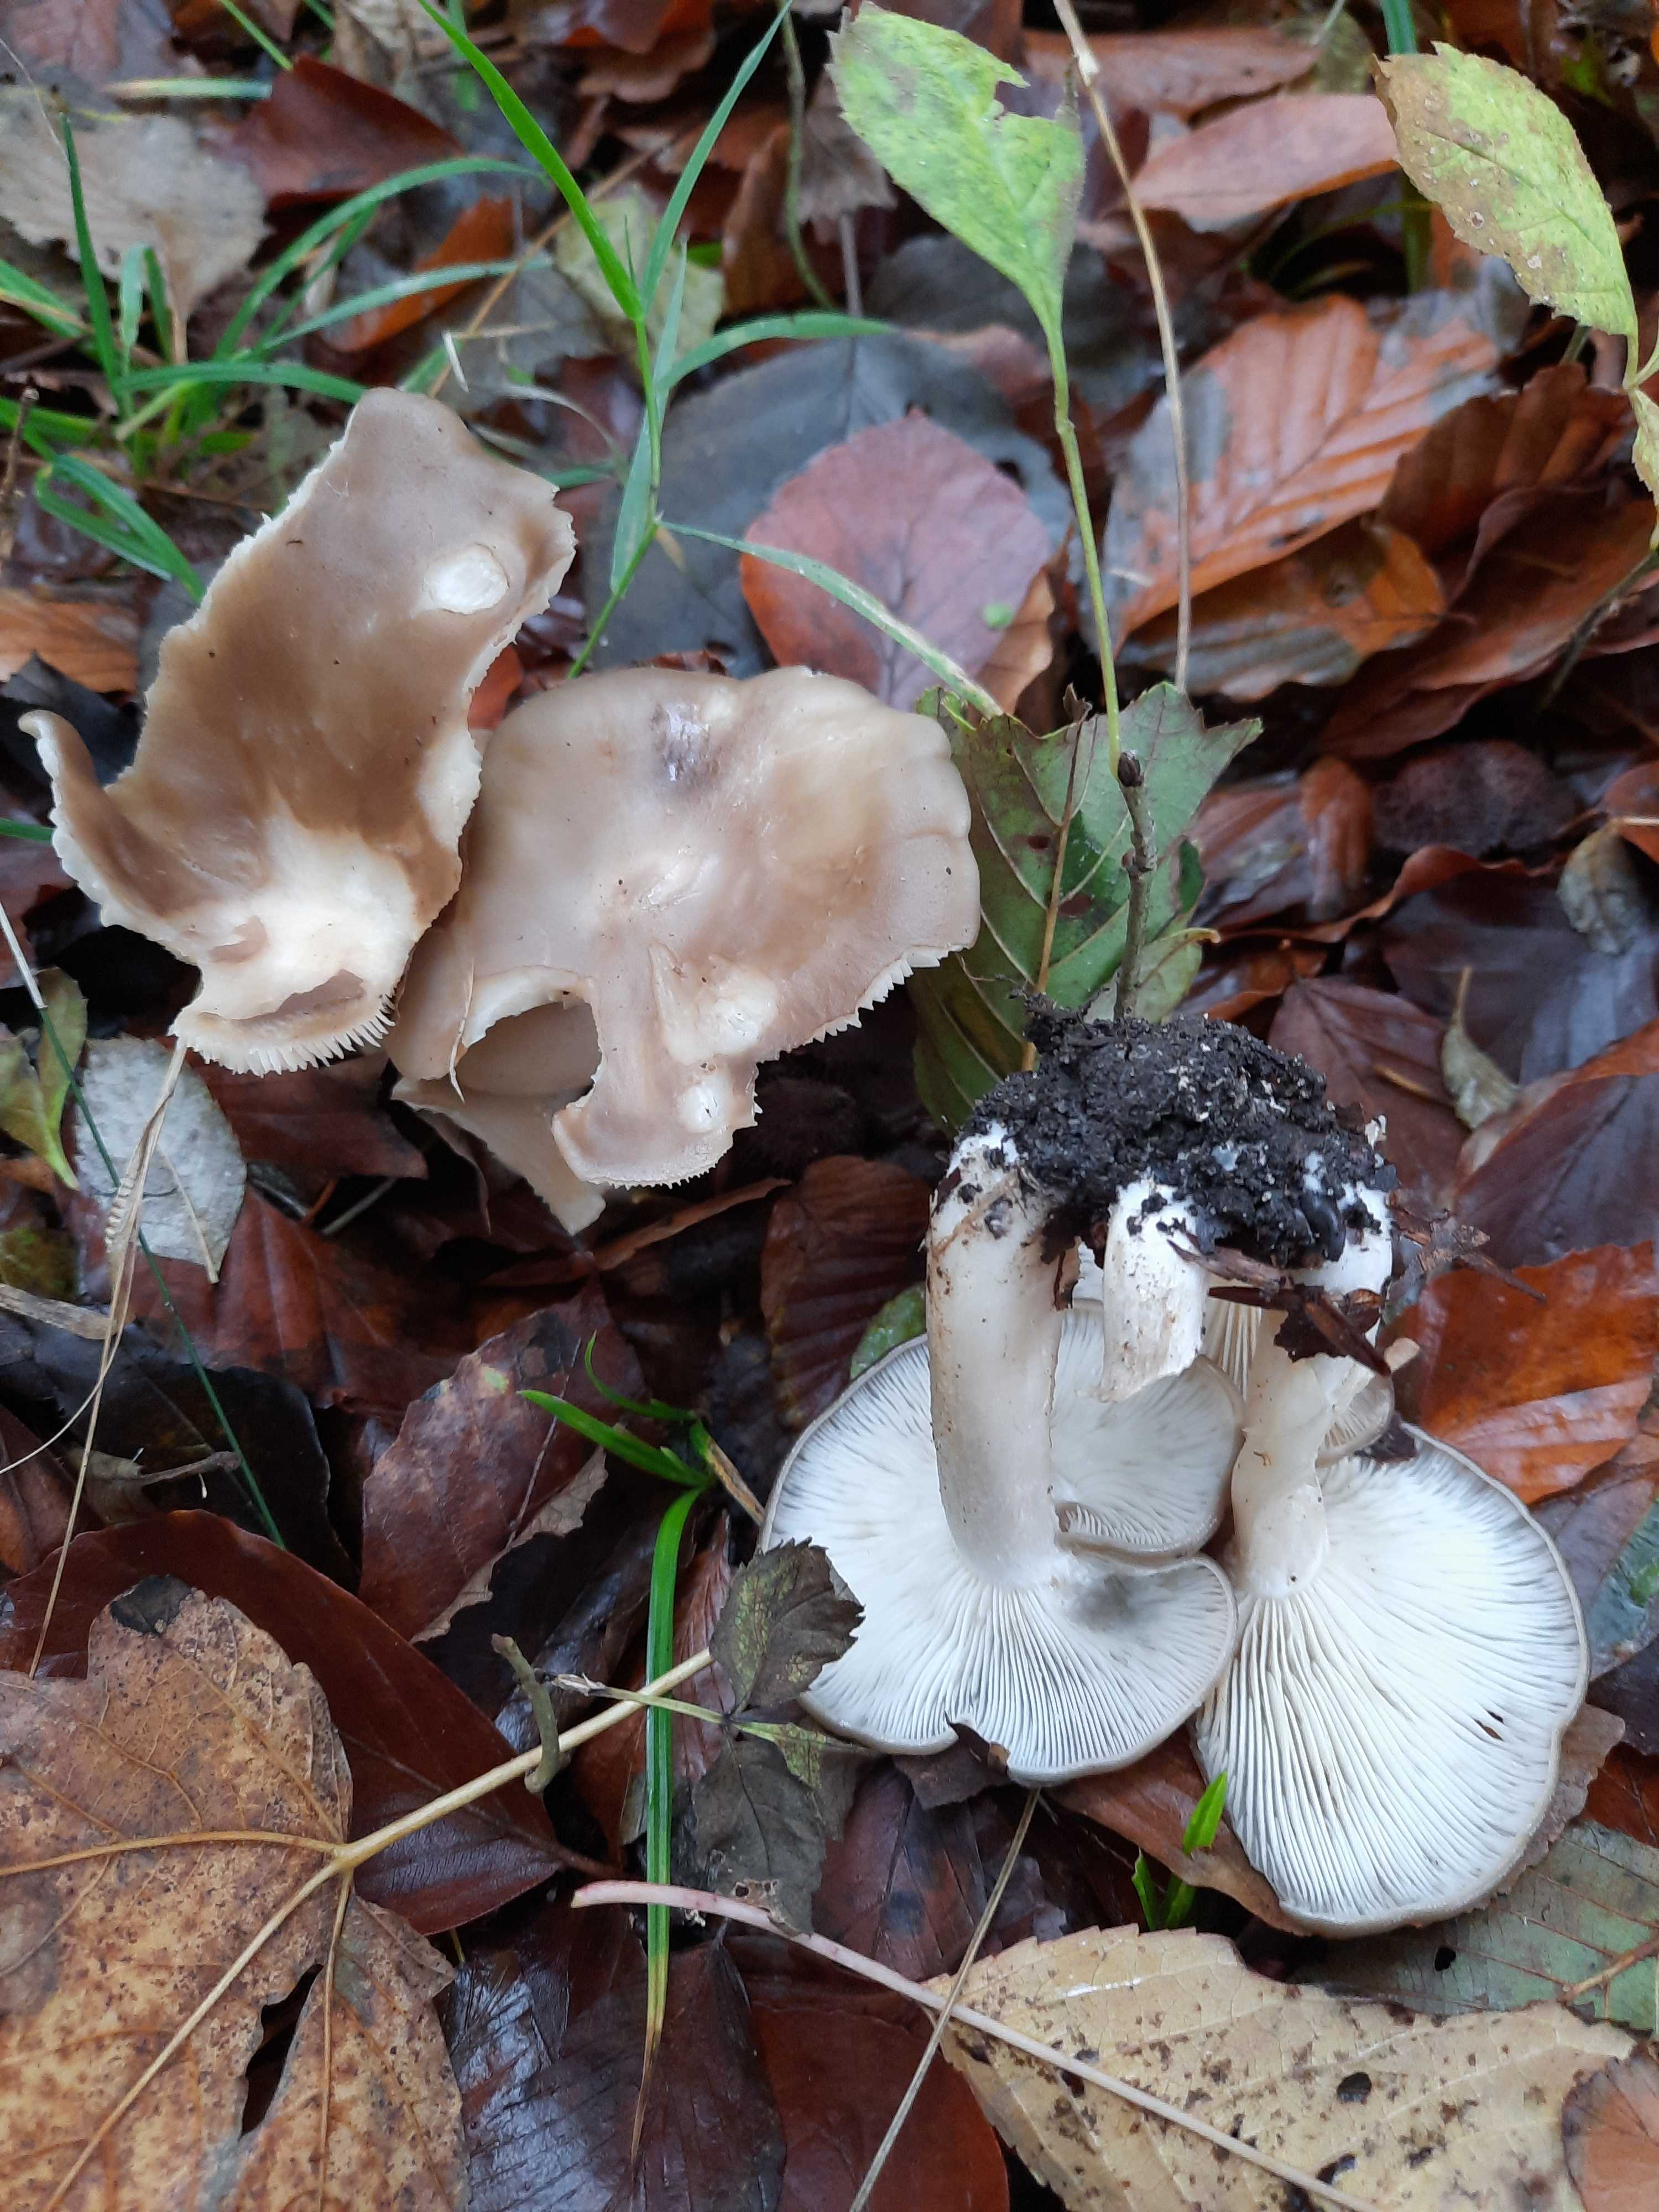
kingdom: Fungi
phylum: Basidiomycota
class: Agaricomycetes
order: Agaricales
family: Lyophyllaceae
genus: Lyophyllum
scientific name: Lyophyllum decastes
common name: røggrå gråblad
